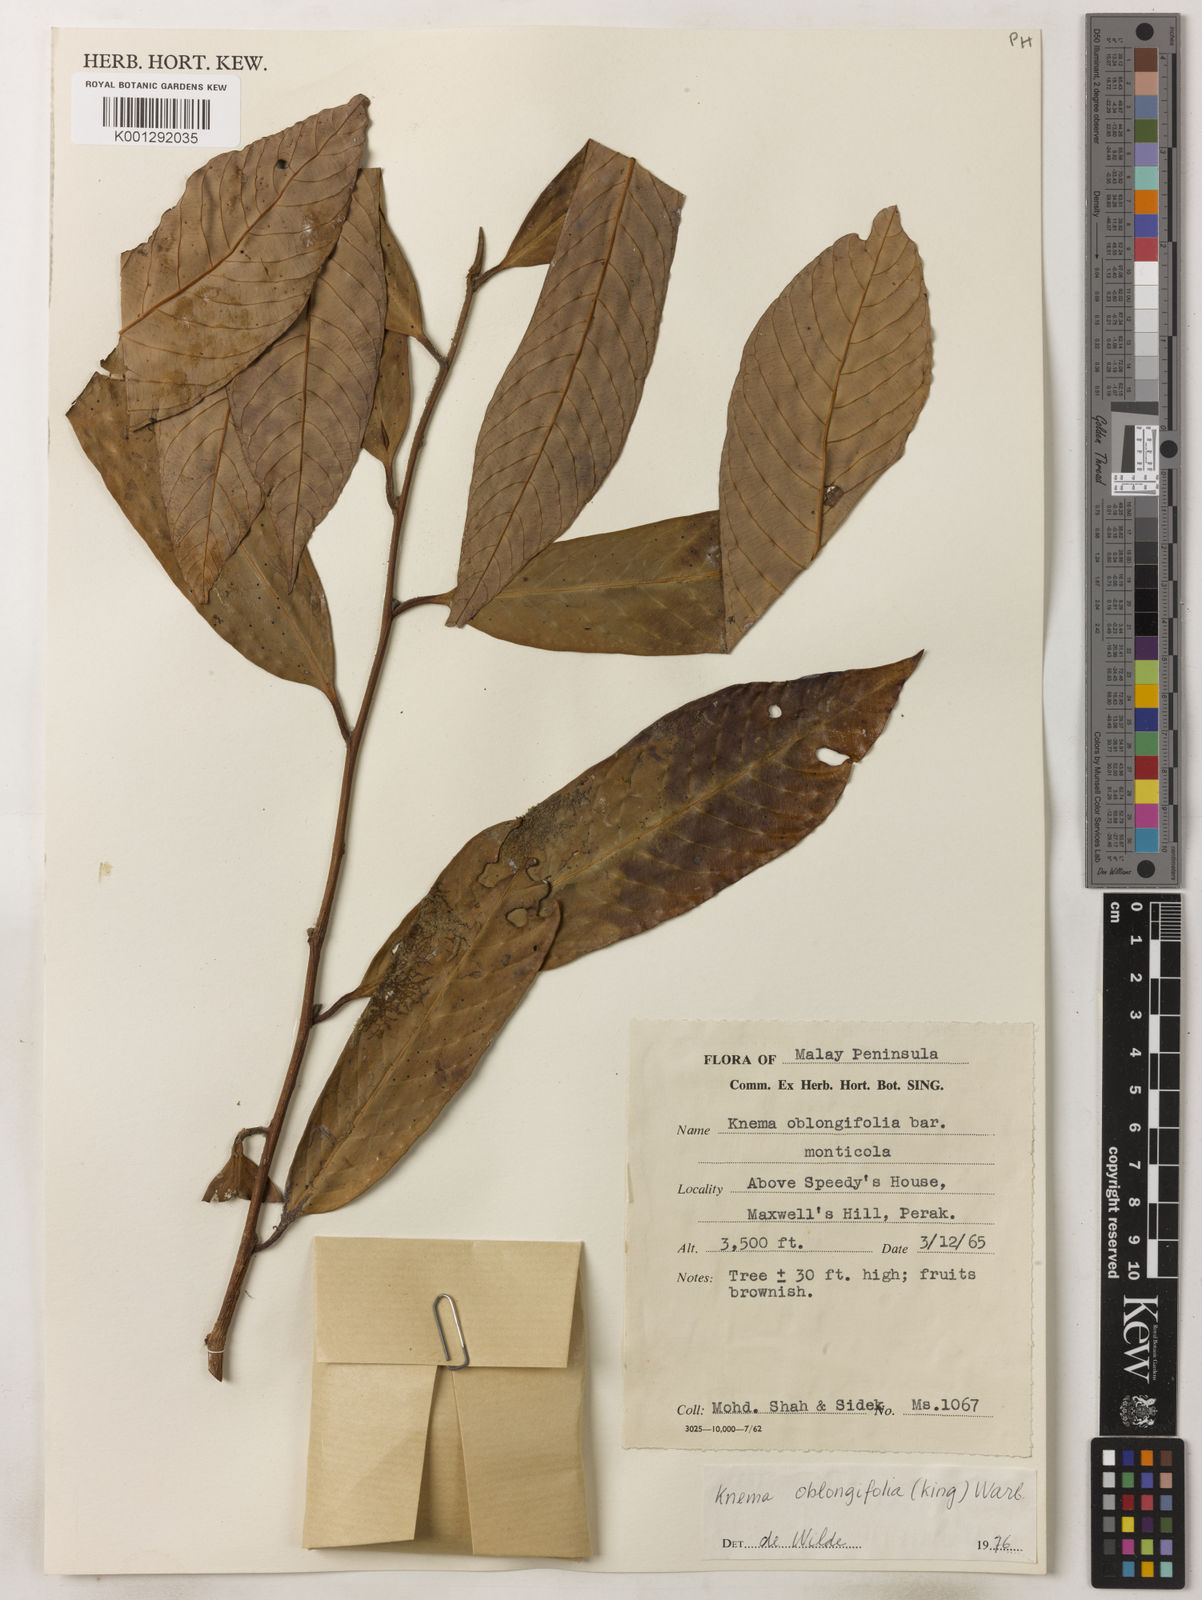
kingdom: Plantae
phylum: Tracheophyta
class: Magnoliopsida
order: Magnoliales
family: Myristicaceae
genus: Knema
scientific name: Knema oblongifolia
